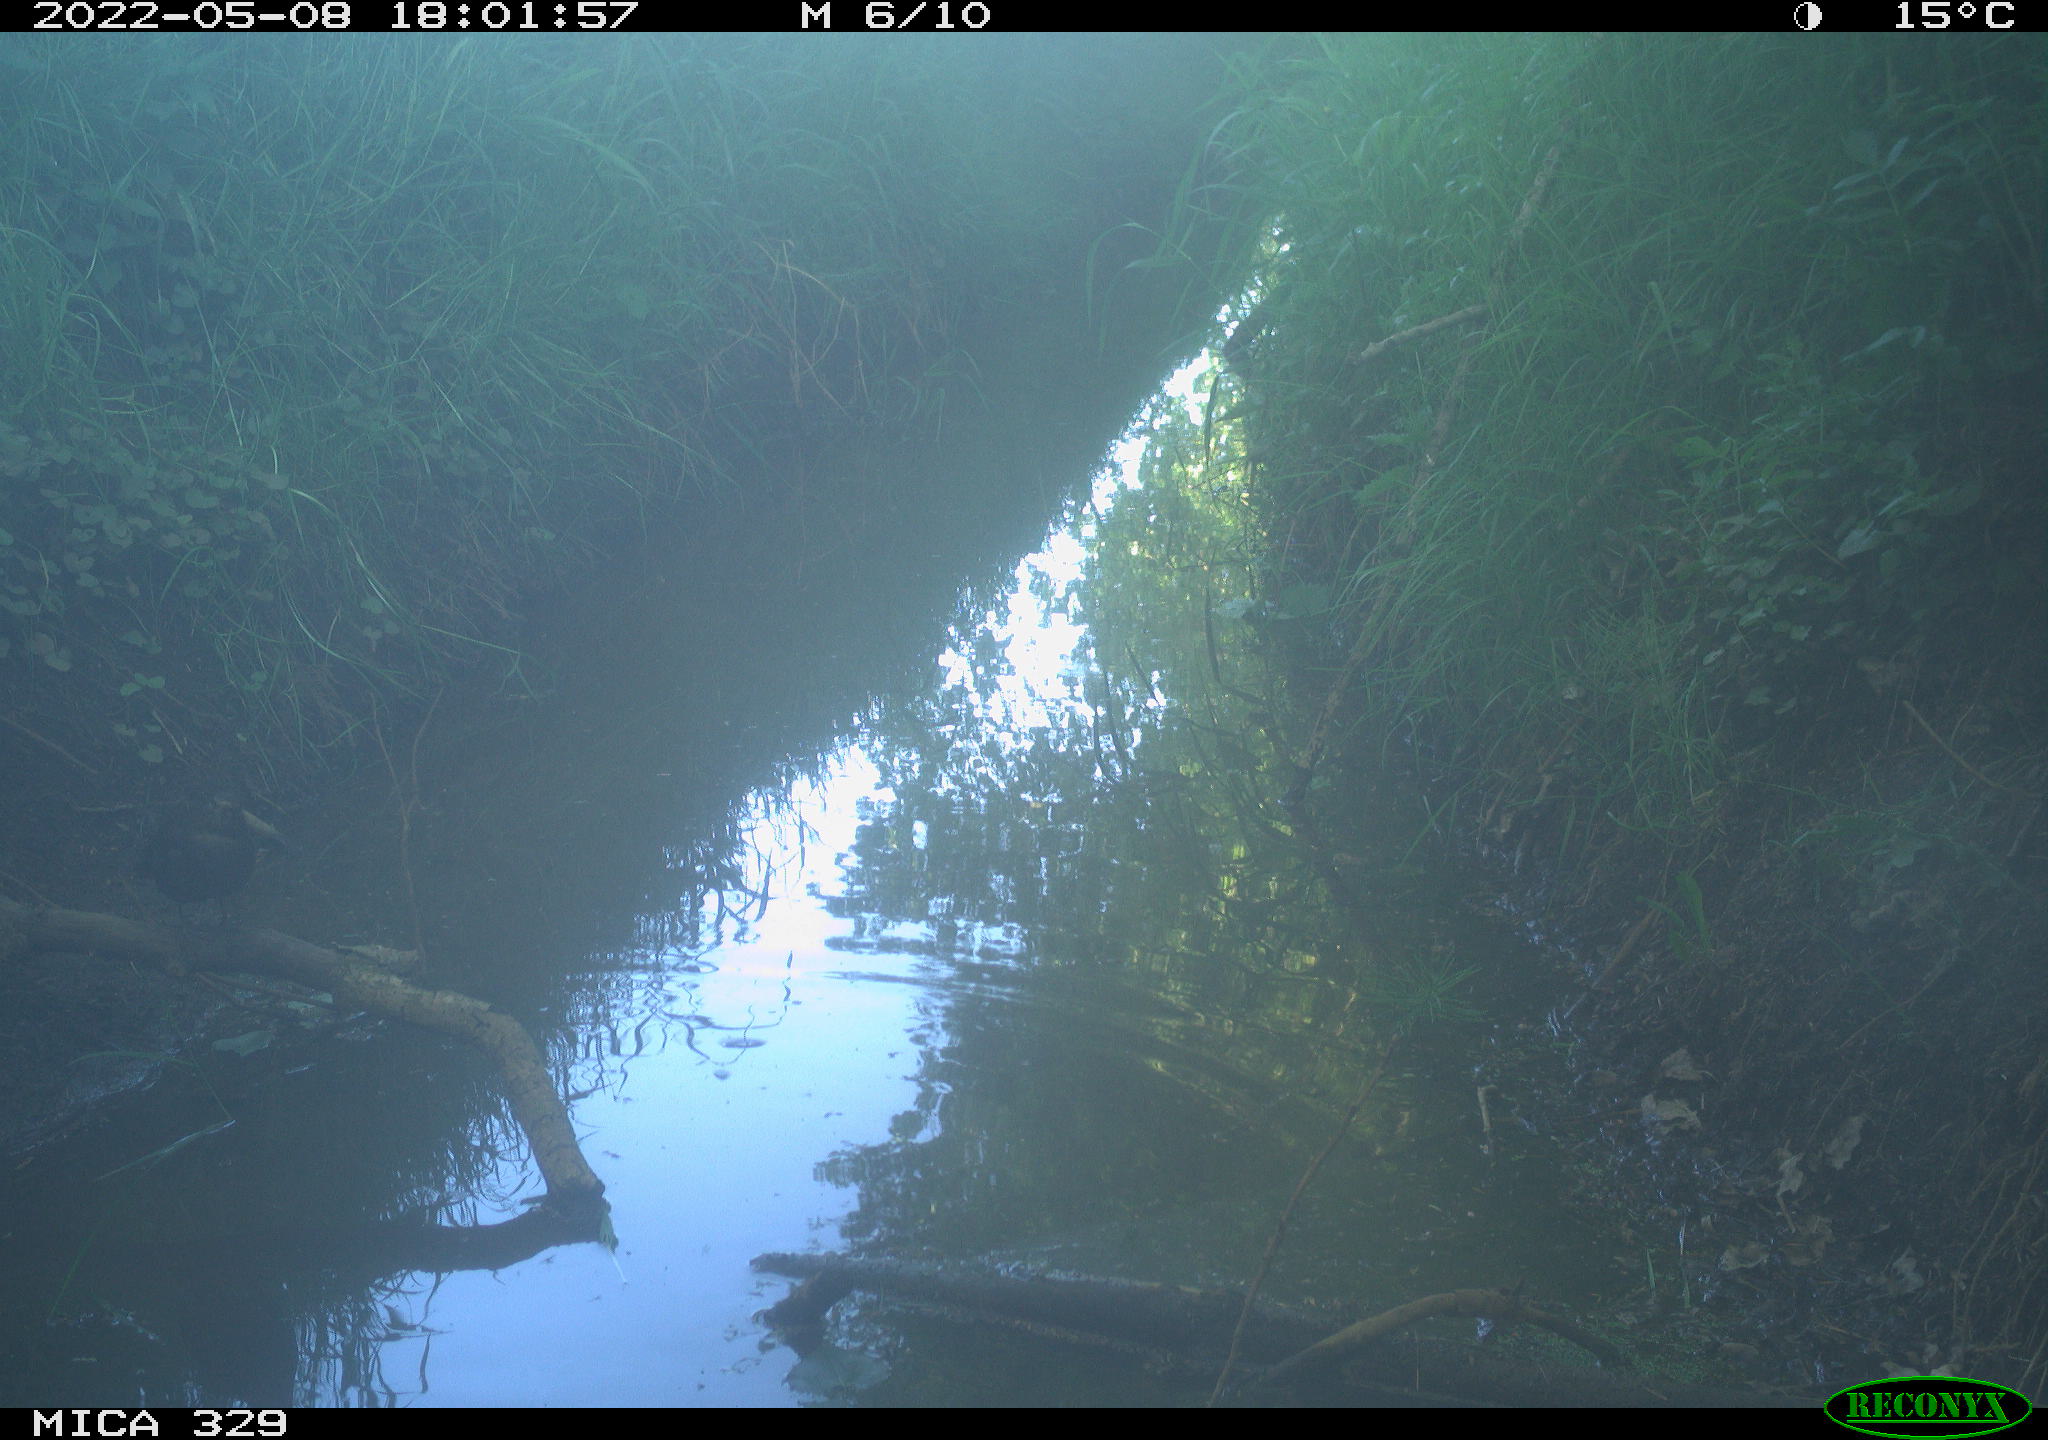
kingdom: Animalia
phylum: Chordata
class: Aves
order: Passeriformes
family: Turdidae
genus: Turdus
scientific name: Turdus merula
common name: Common blackbird
